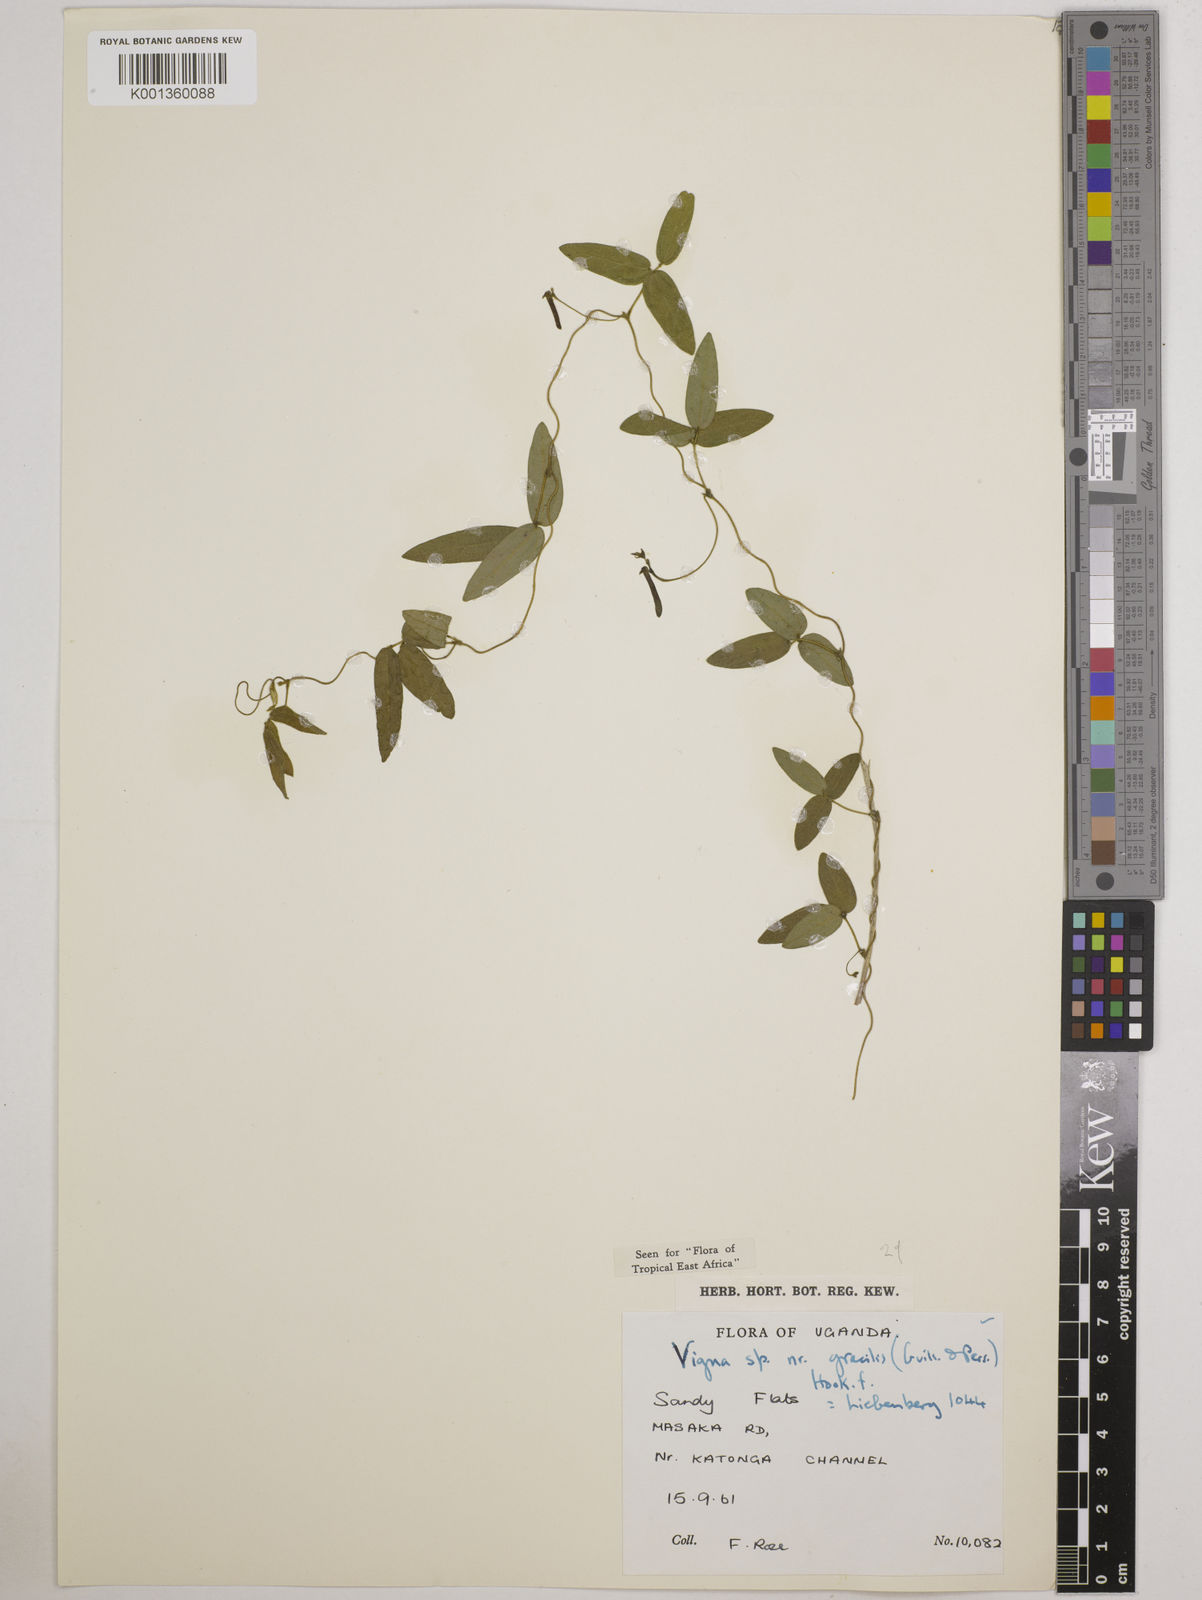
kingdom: Plantae
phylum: Tracheophyta
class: Magnoliopsida
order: Fabales
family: Fabaceae
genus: Vigna
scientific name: Vigna gracilis
